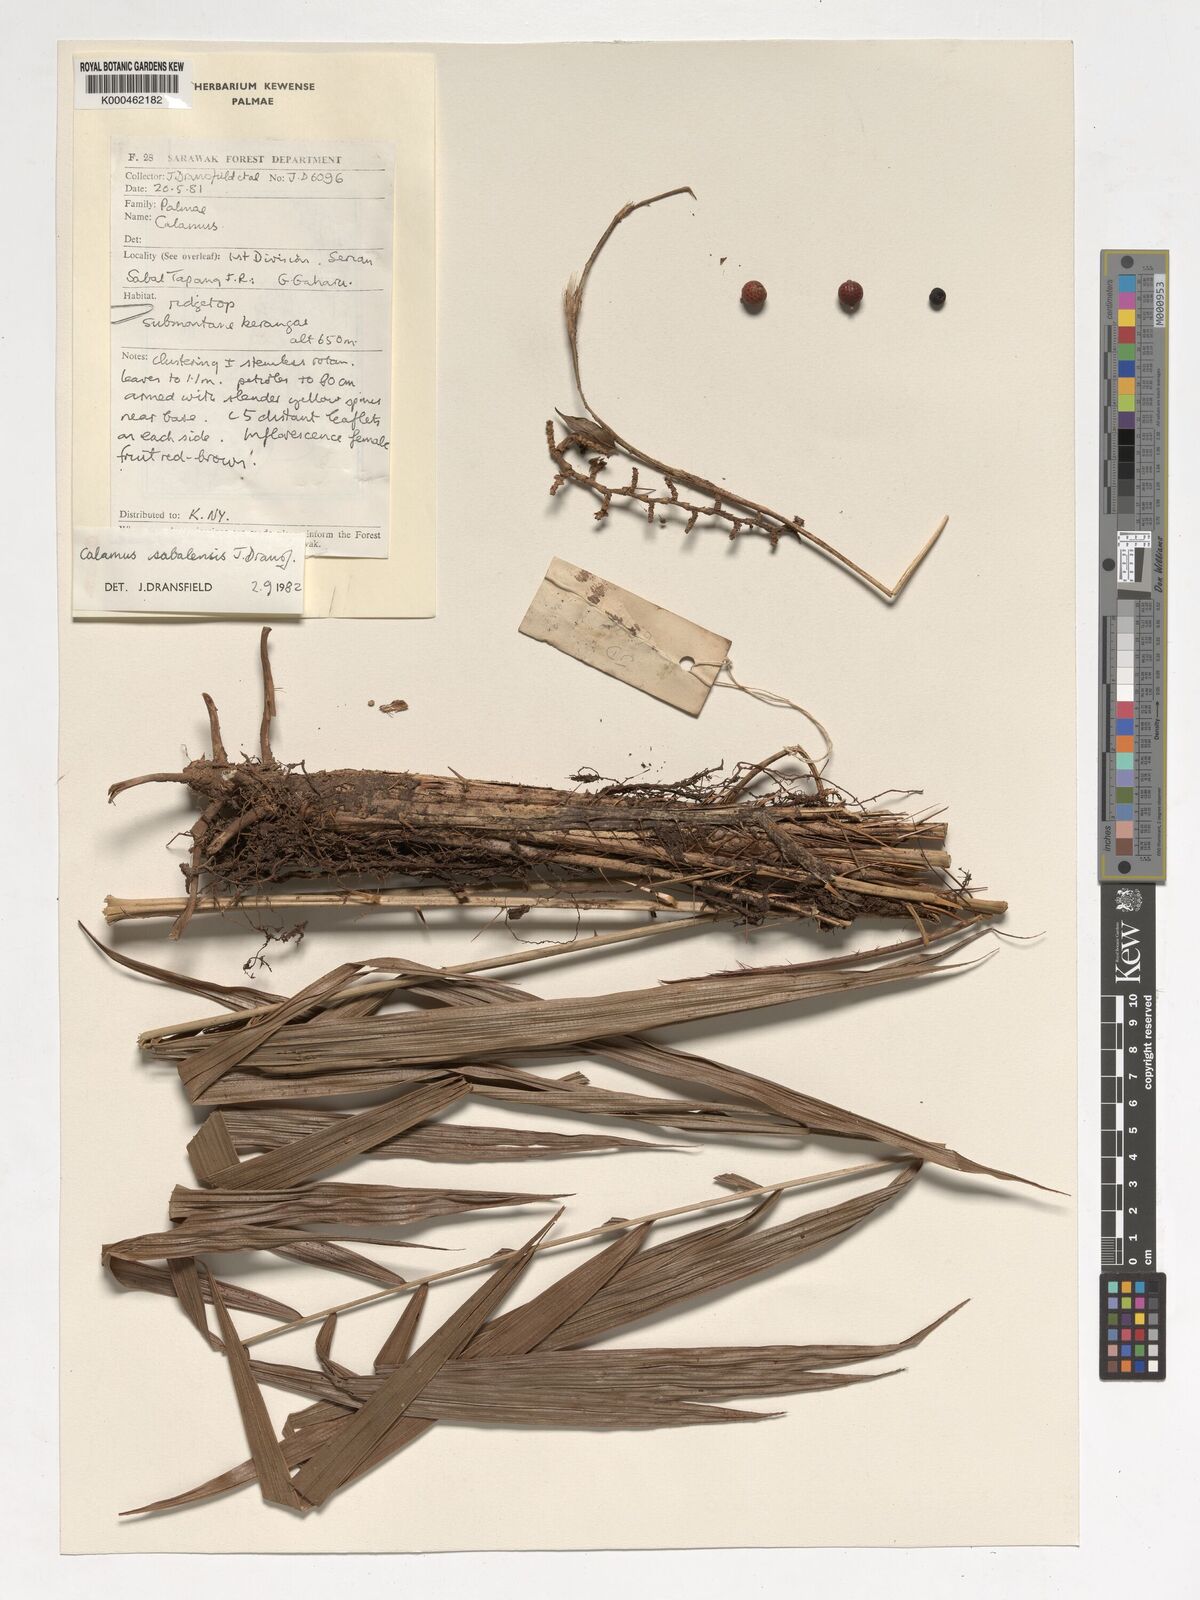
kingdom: Plantae
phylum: Tracheophyta
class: Liliopsida
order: Arecales
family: Arecaceae
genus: Calamus
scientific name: Calamus sabalensis
